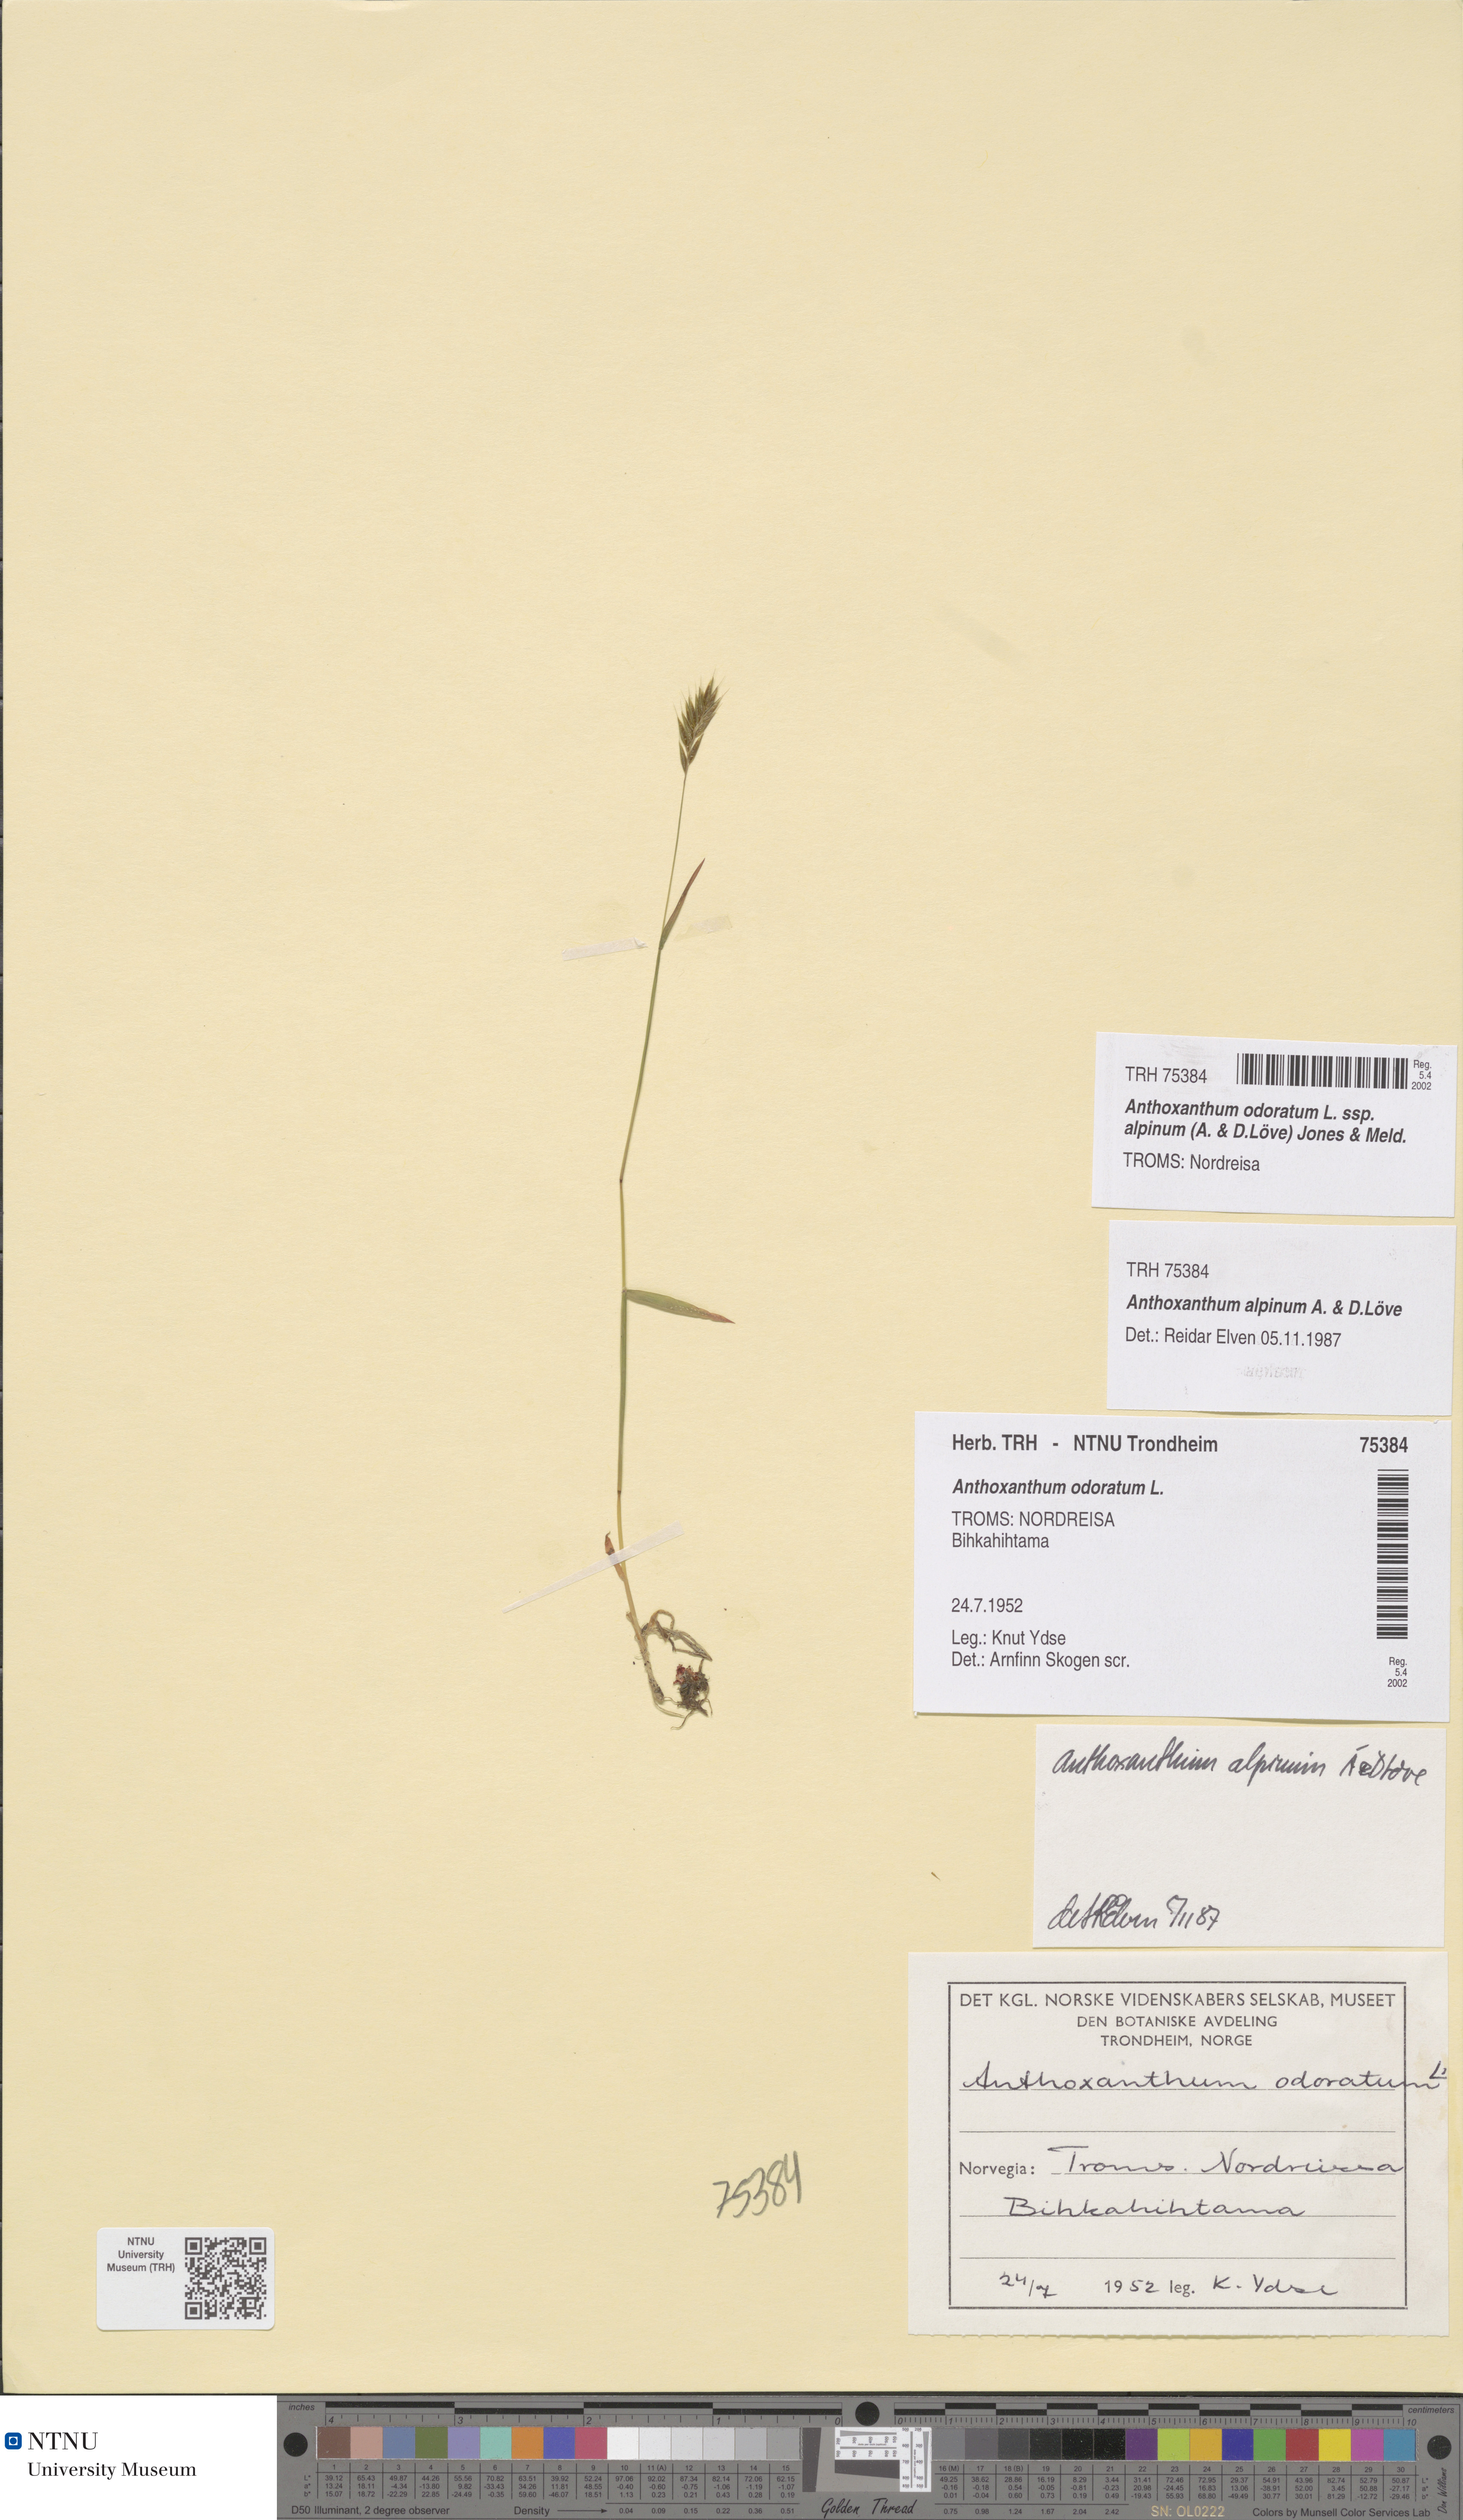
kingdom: Plantae
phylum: Tracheophyta
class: Liliopsida
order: Poales
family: Poaceae
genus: Anthoxanthum
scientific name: Anthoxanthum nipponicum
